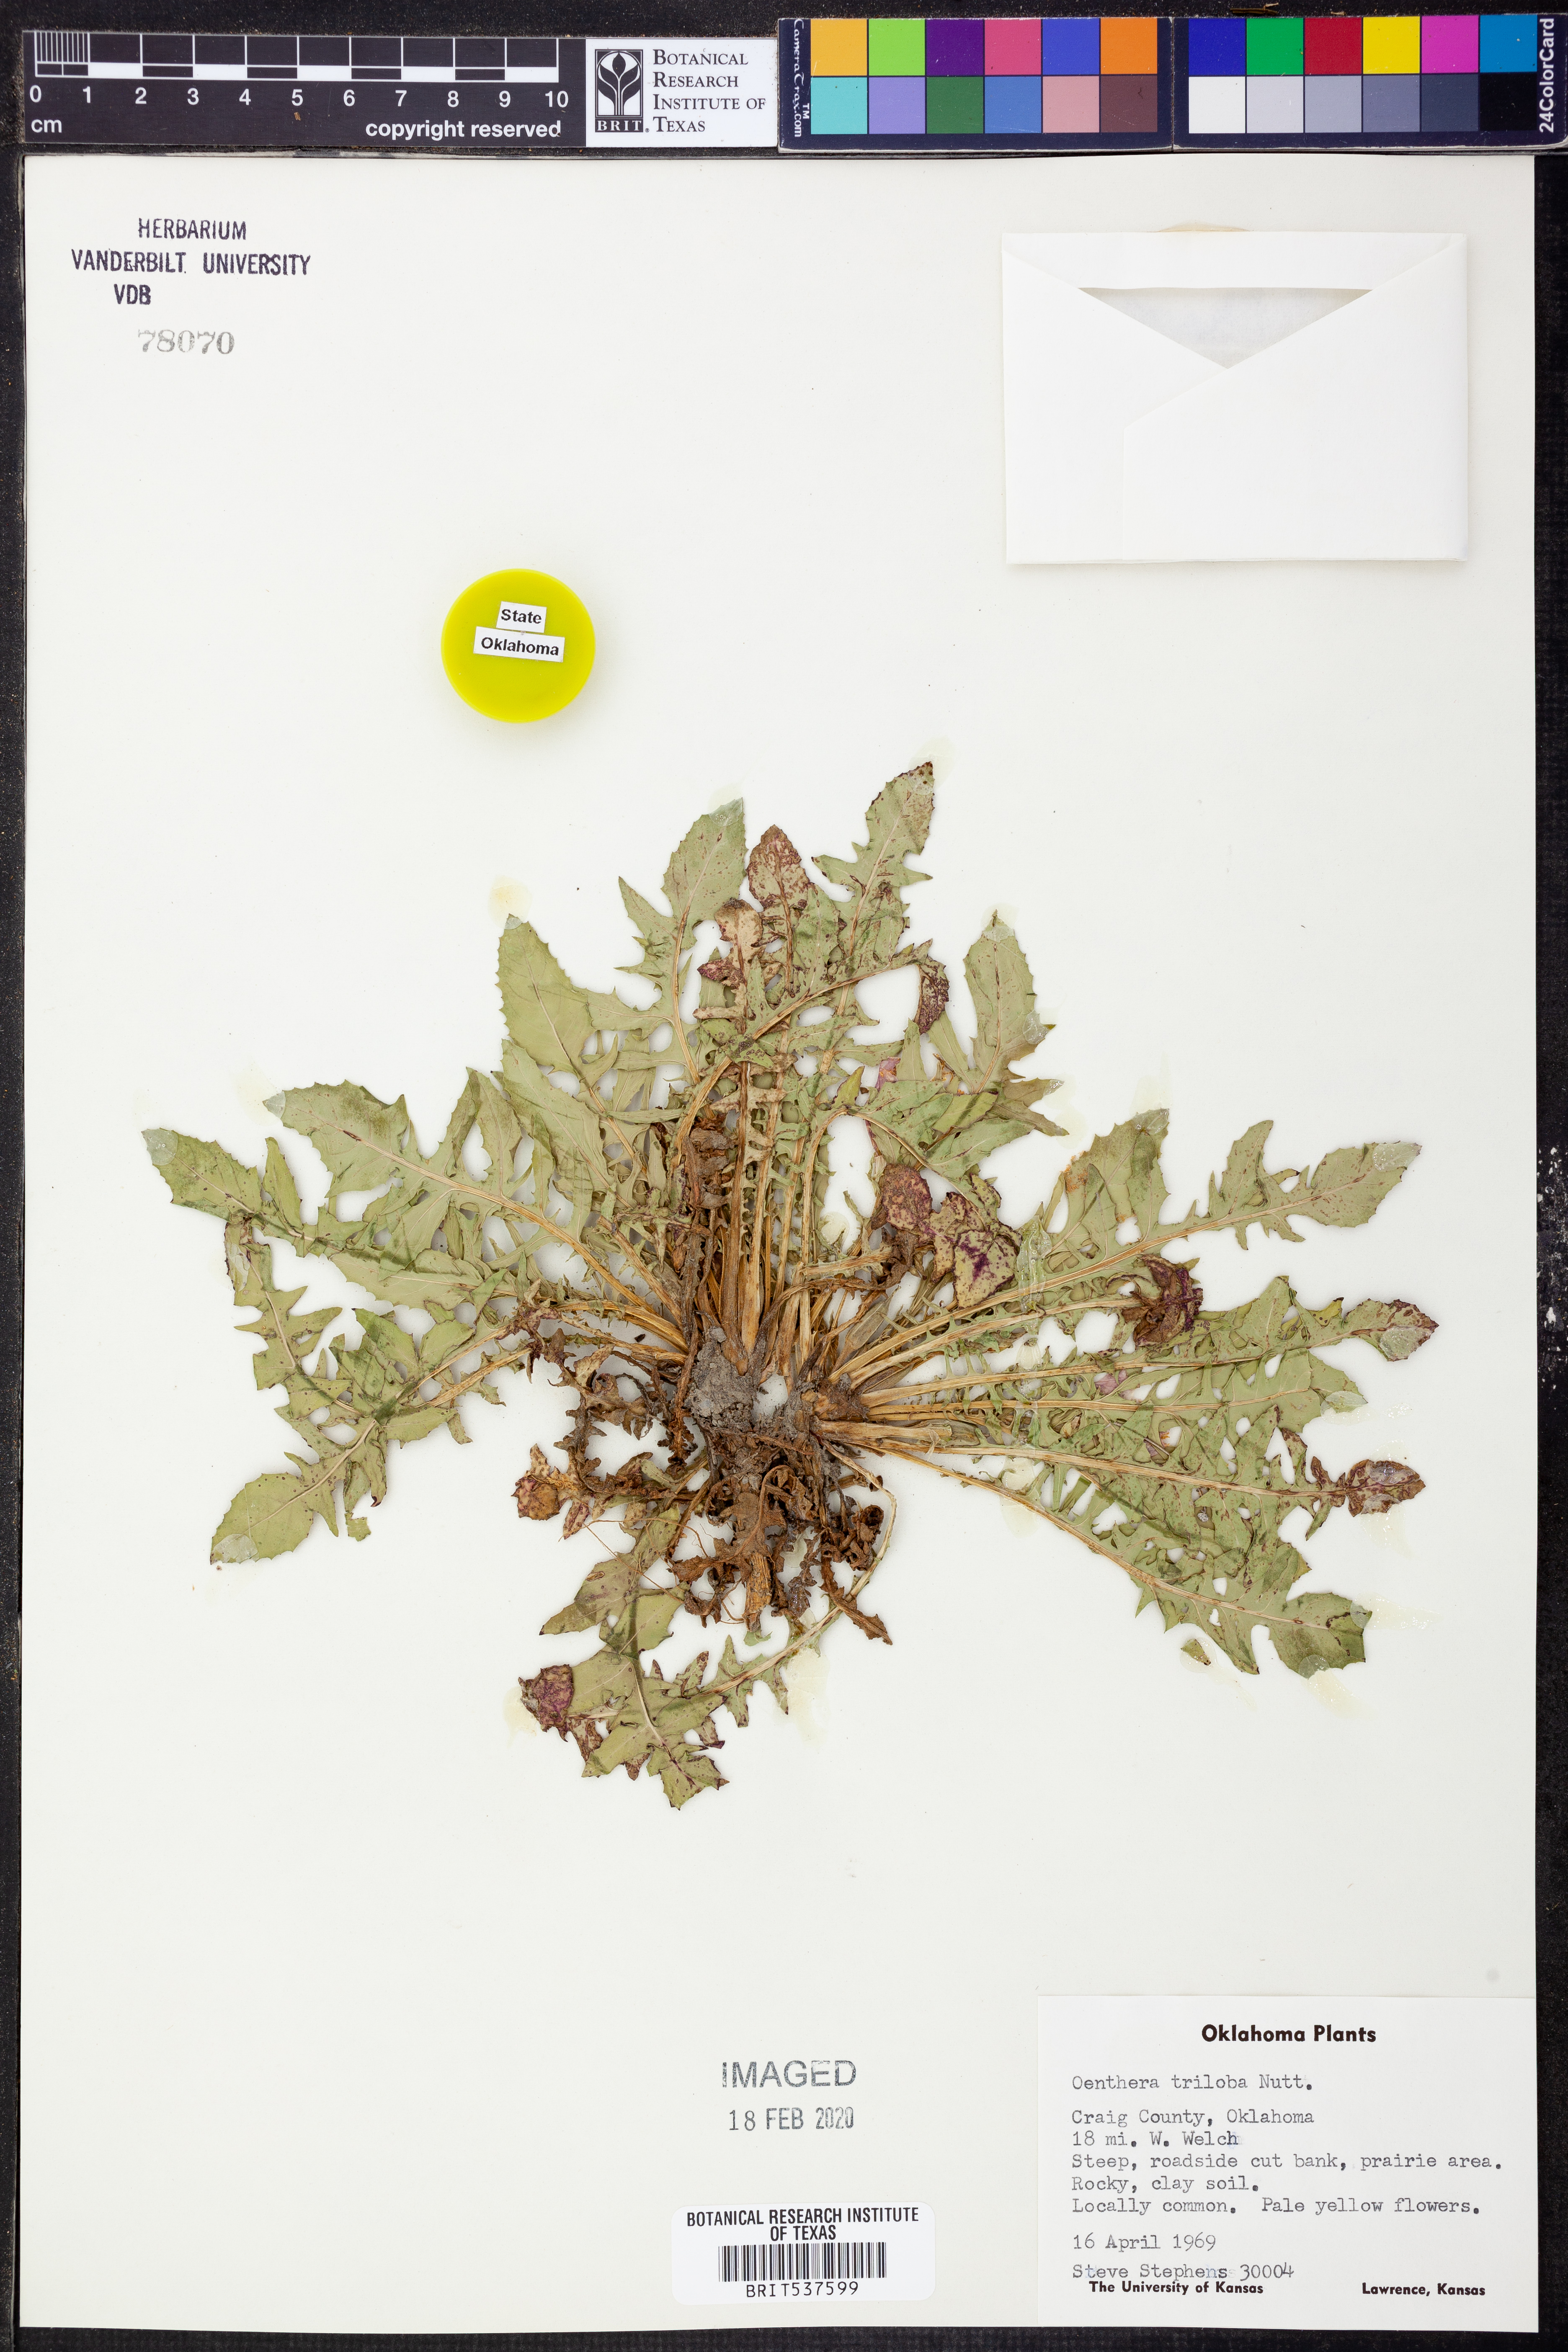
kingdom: Plantae
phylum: Tracheophyta
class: Magnoliopsida
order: Myrtales
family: Onagraceae
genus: Oenothera
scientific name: Oenothera triloba
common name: Sessile evening-primrose
